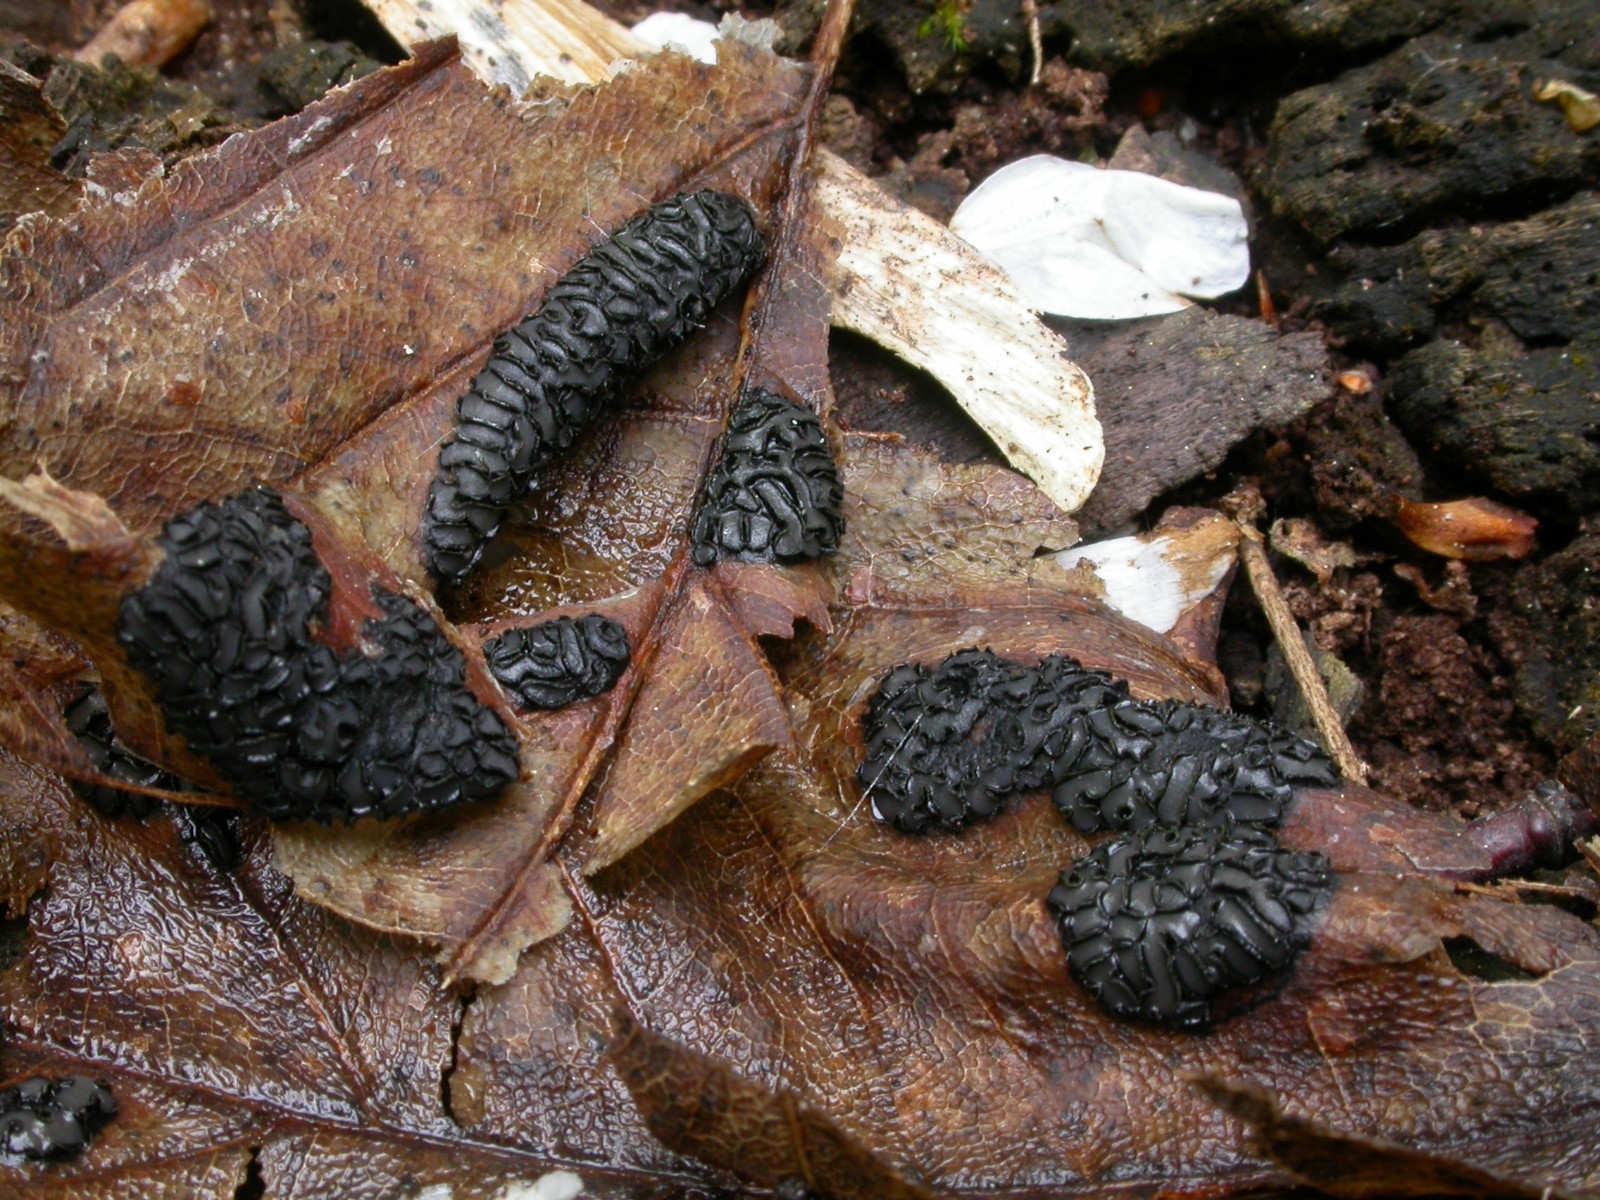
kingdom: Fungi
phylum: Ascomycota
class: Leotiomycetes
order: Rhytismatales
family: Rhytismataceae
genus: Rhytisma
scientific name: Rhytisma acerinum
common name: ahorn-rynkeplet
